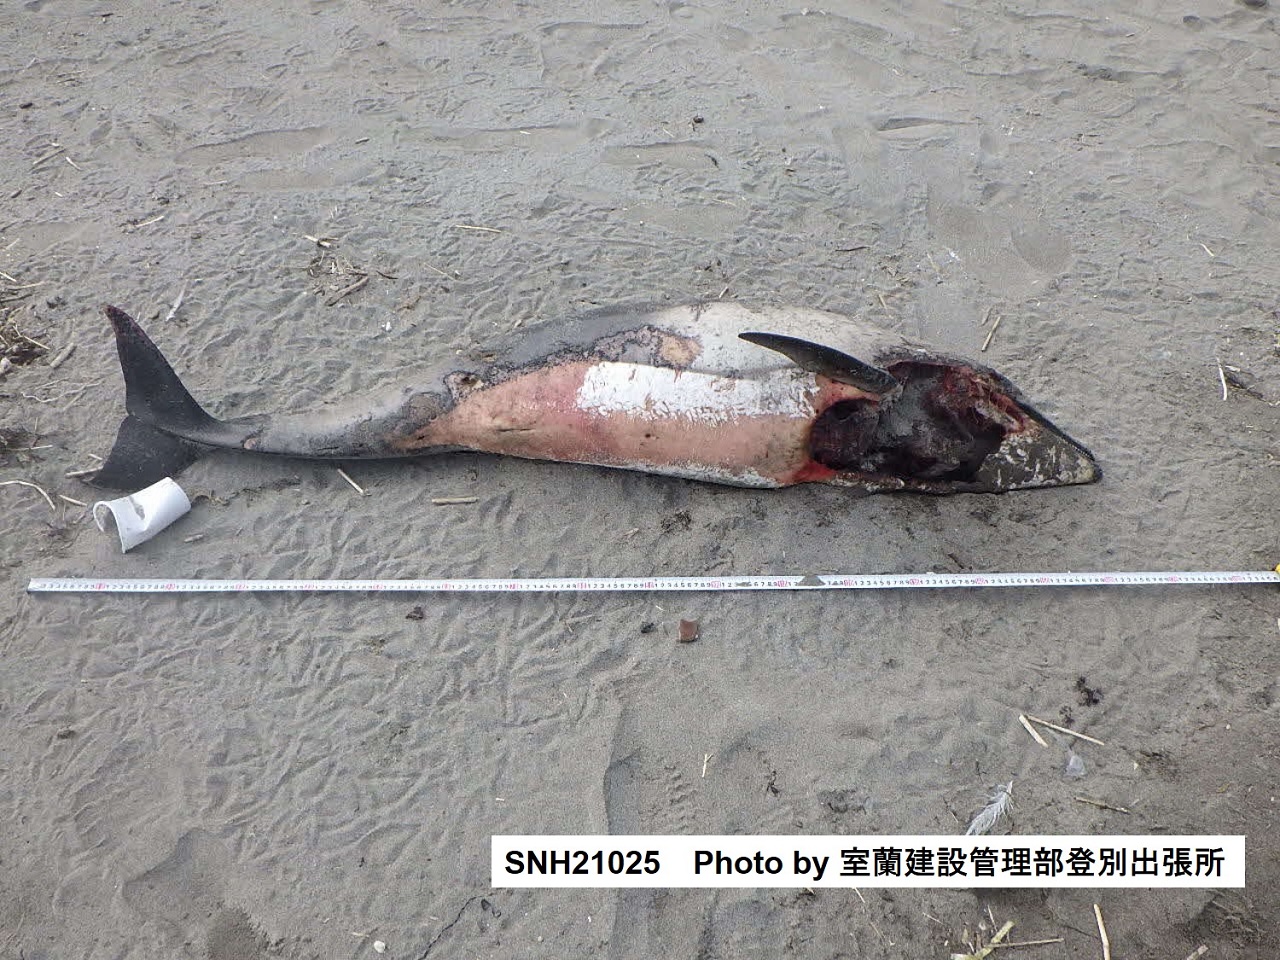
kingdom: Animalia
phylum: Chordata
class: Mammalia
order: Cetacea
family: Delphinidae
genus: Lagenorhynchus
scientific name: Lagenorhynchus obliquidens
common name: Pacific white-sided dolphin
